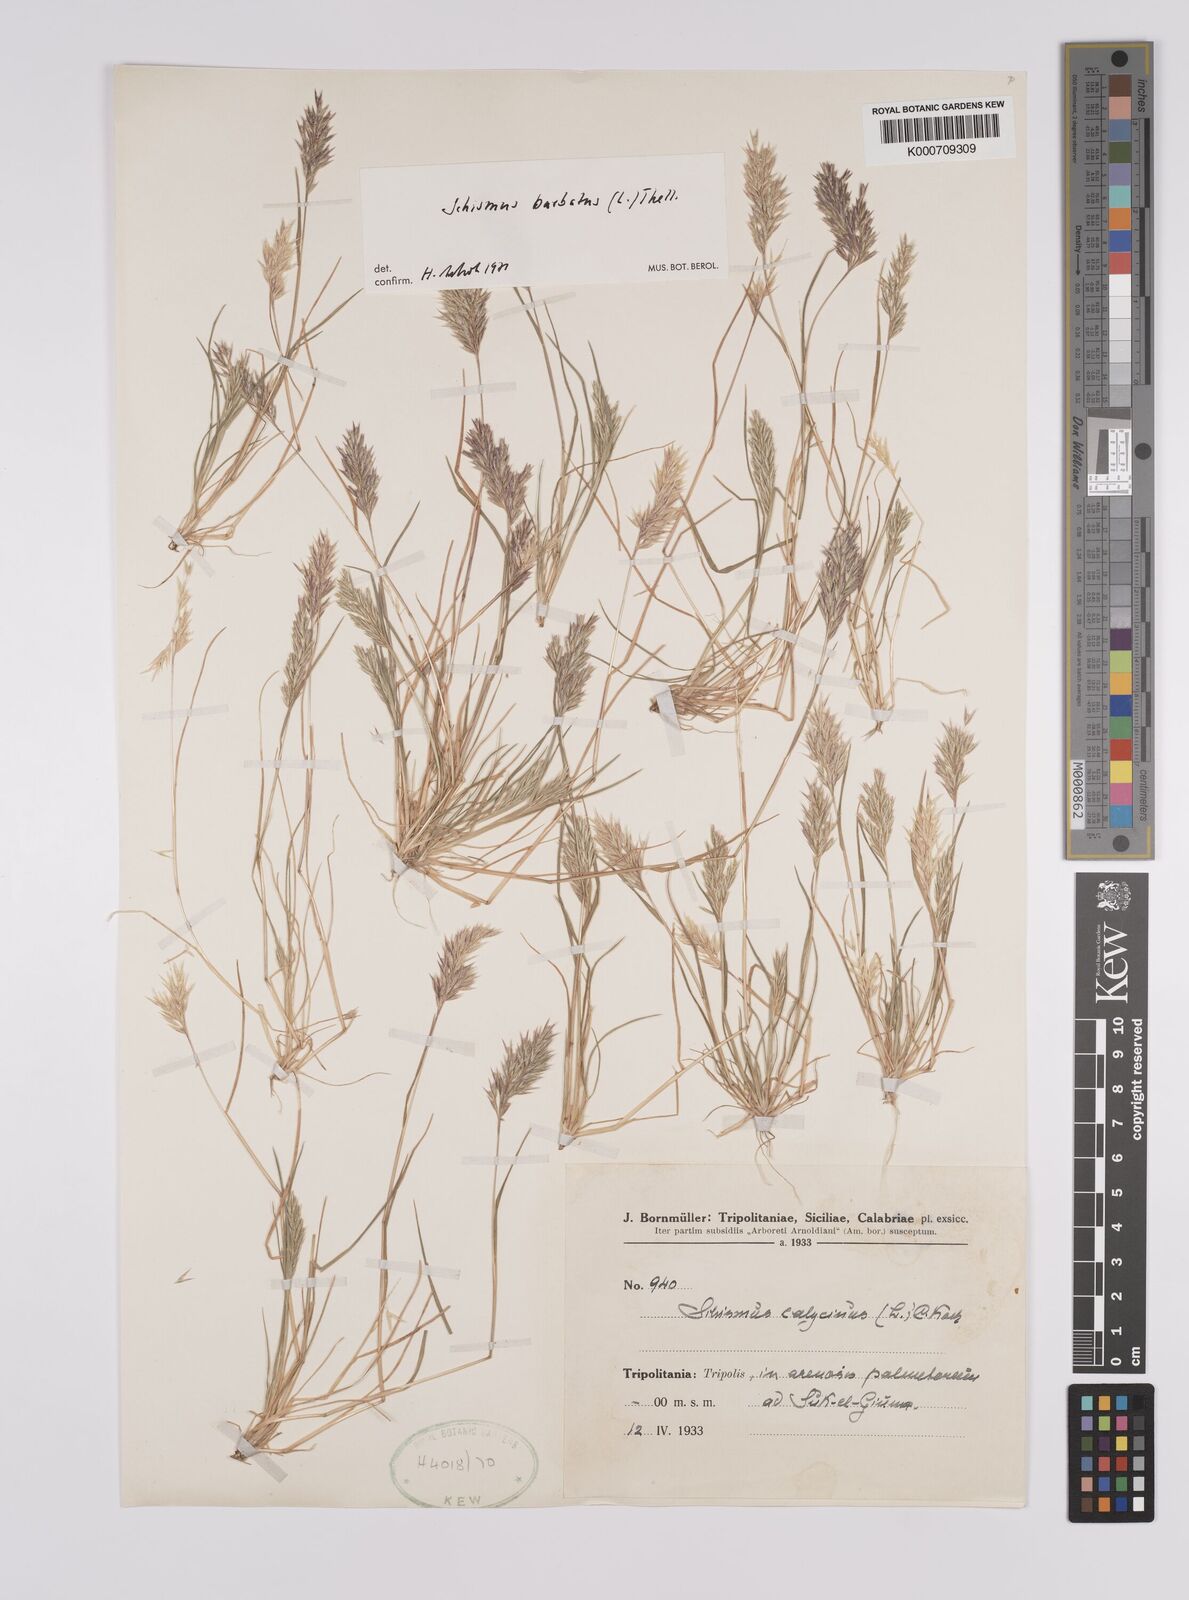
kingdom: Plantae
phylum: Tracheophyta
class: Liliopsida
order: Poales
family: Poaceae
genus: Schismus
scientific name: Schismus barbatus
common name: Kelch-grass
